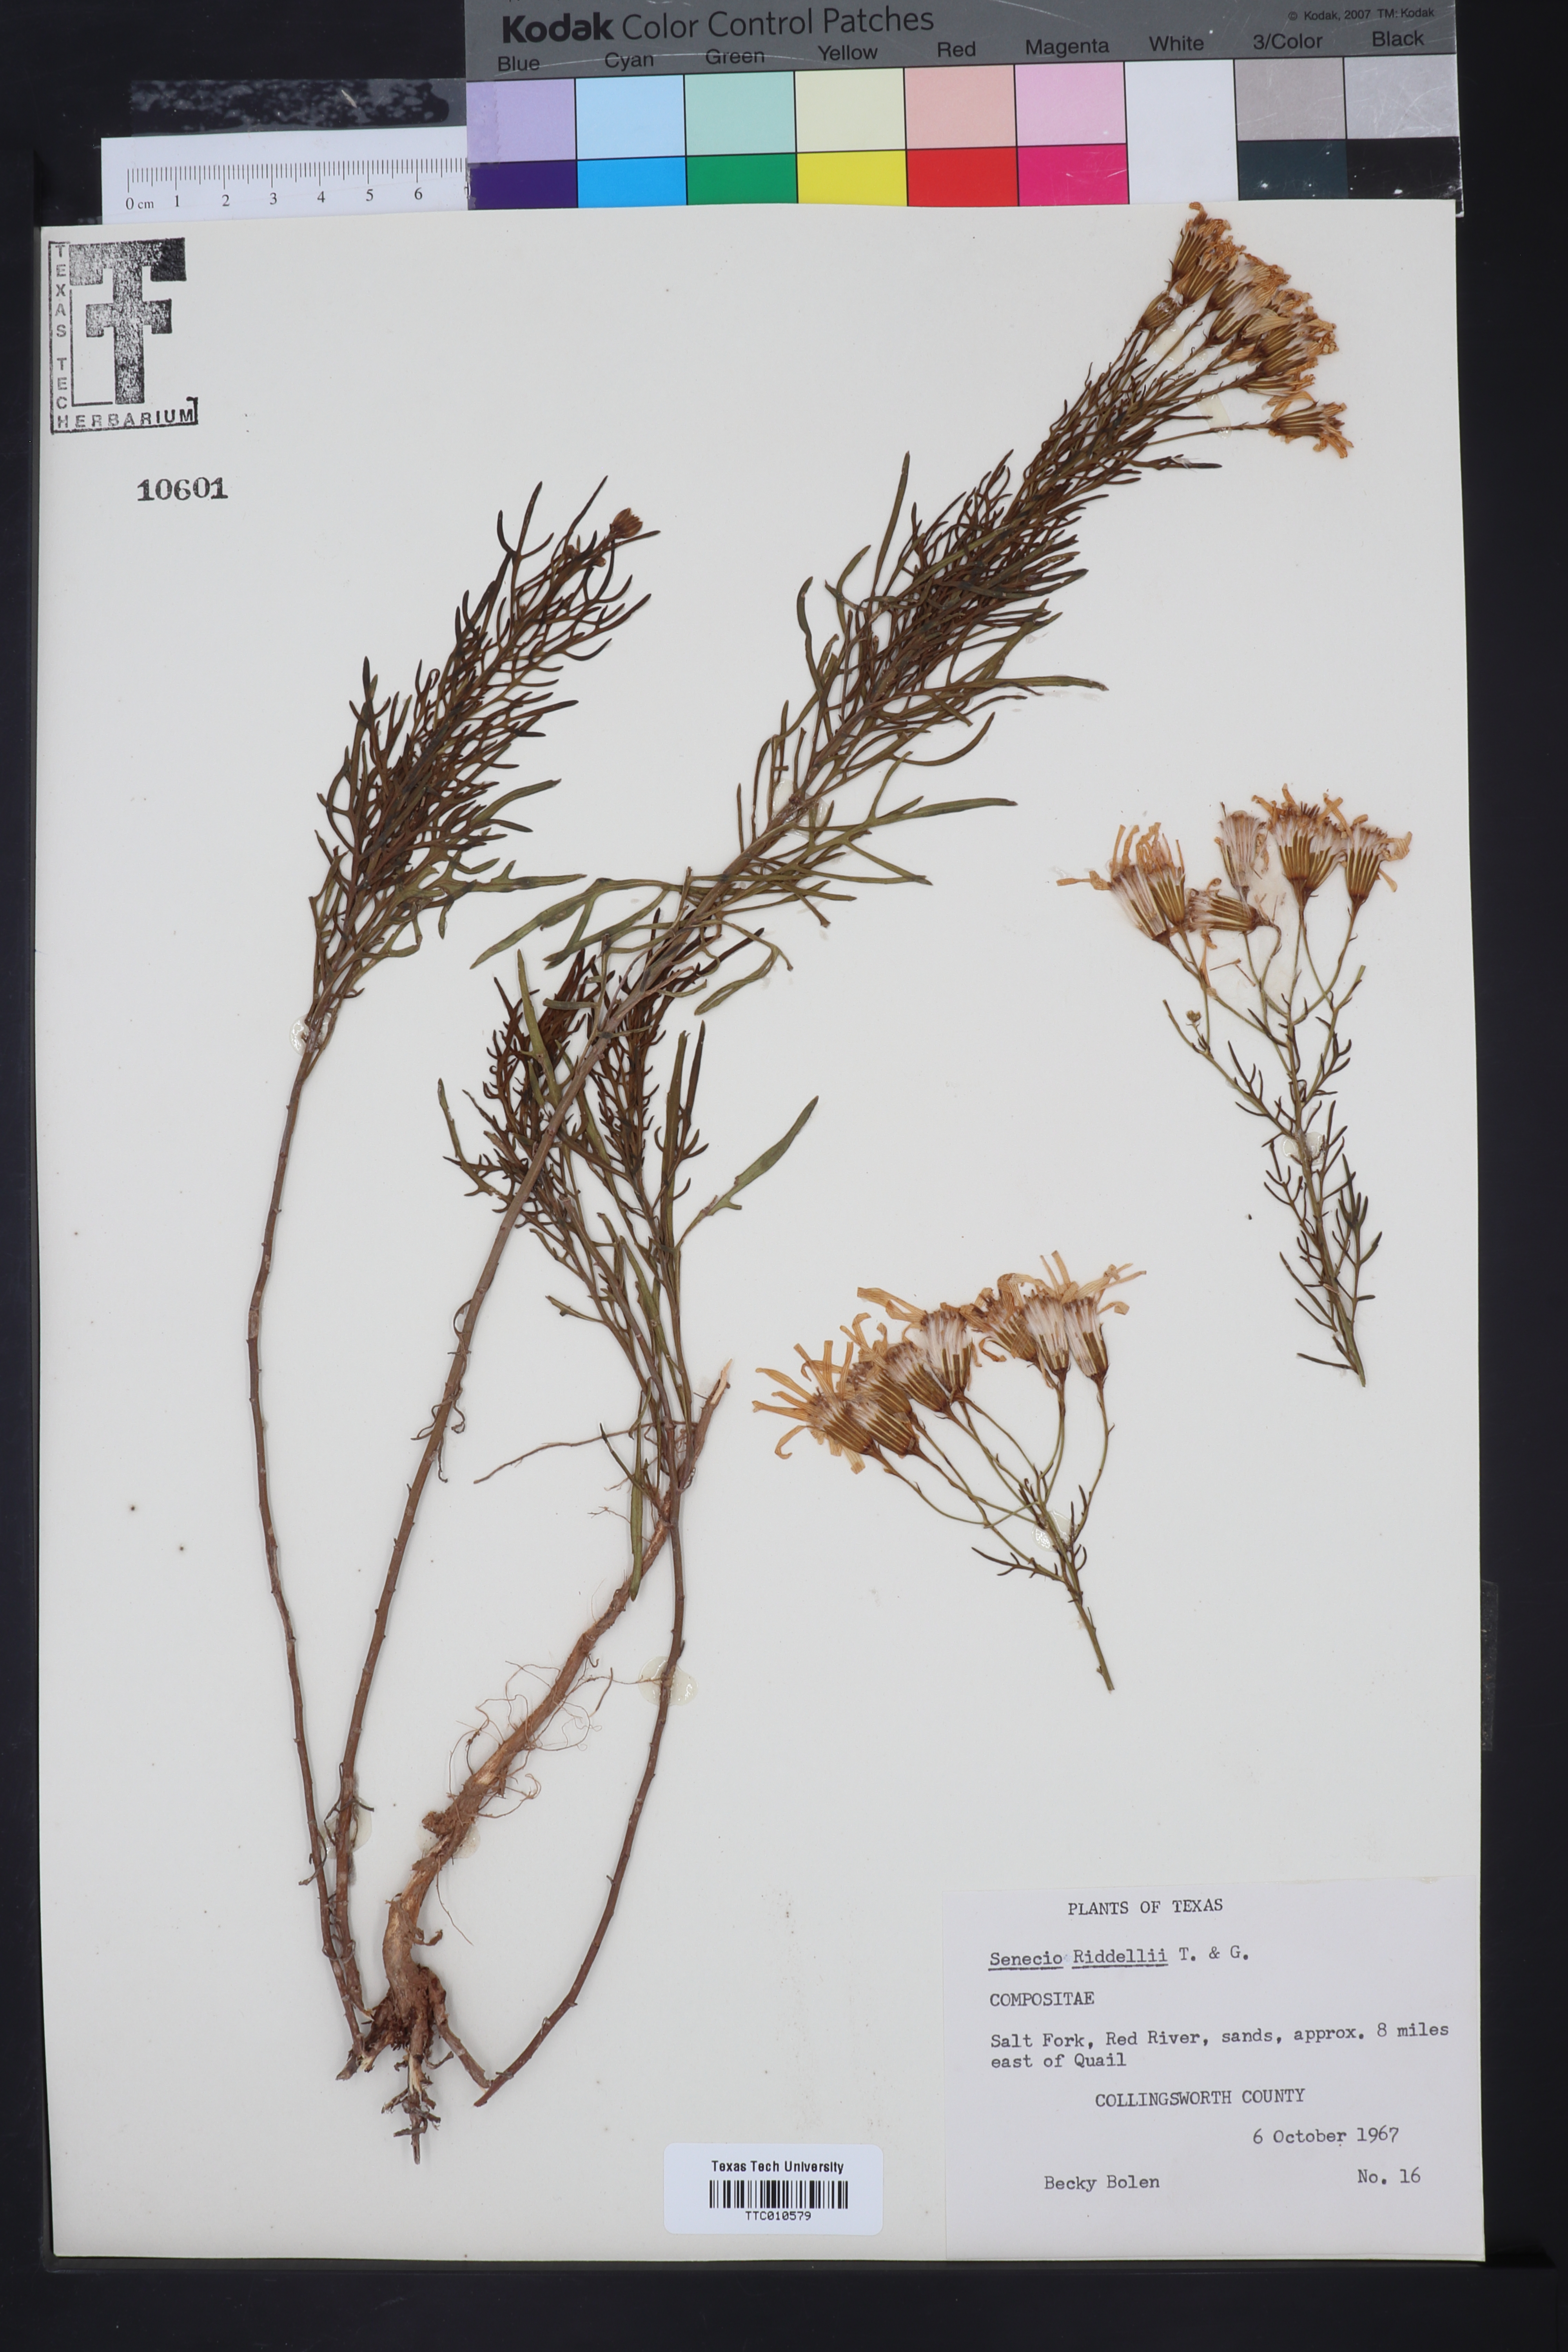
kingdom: Plantae
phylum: Tracheophyta
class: Magnoliopsida
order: Asterales
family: Asteraceae
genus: Senecio
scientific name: Senecio riddellii
